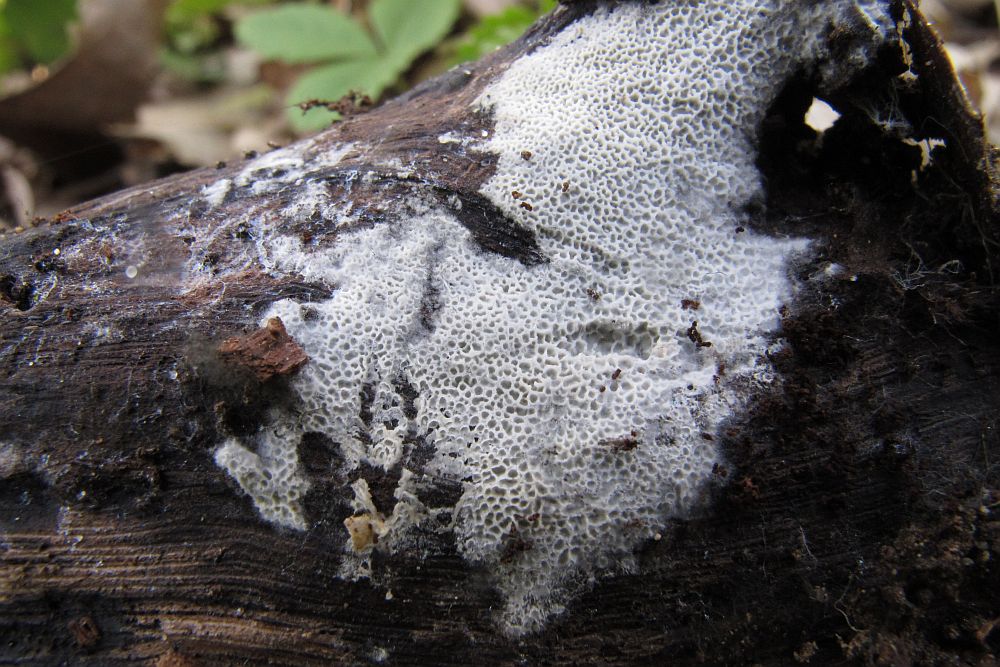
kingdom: Fungi
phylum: Basidiomycota
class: Agaricomycetes
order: Polyporales
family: Irpicaceae
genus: Ceriporia
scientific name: Ceriporia reticulata
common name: netagtig voksporesvamp
